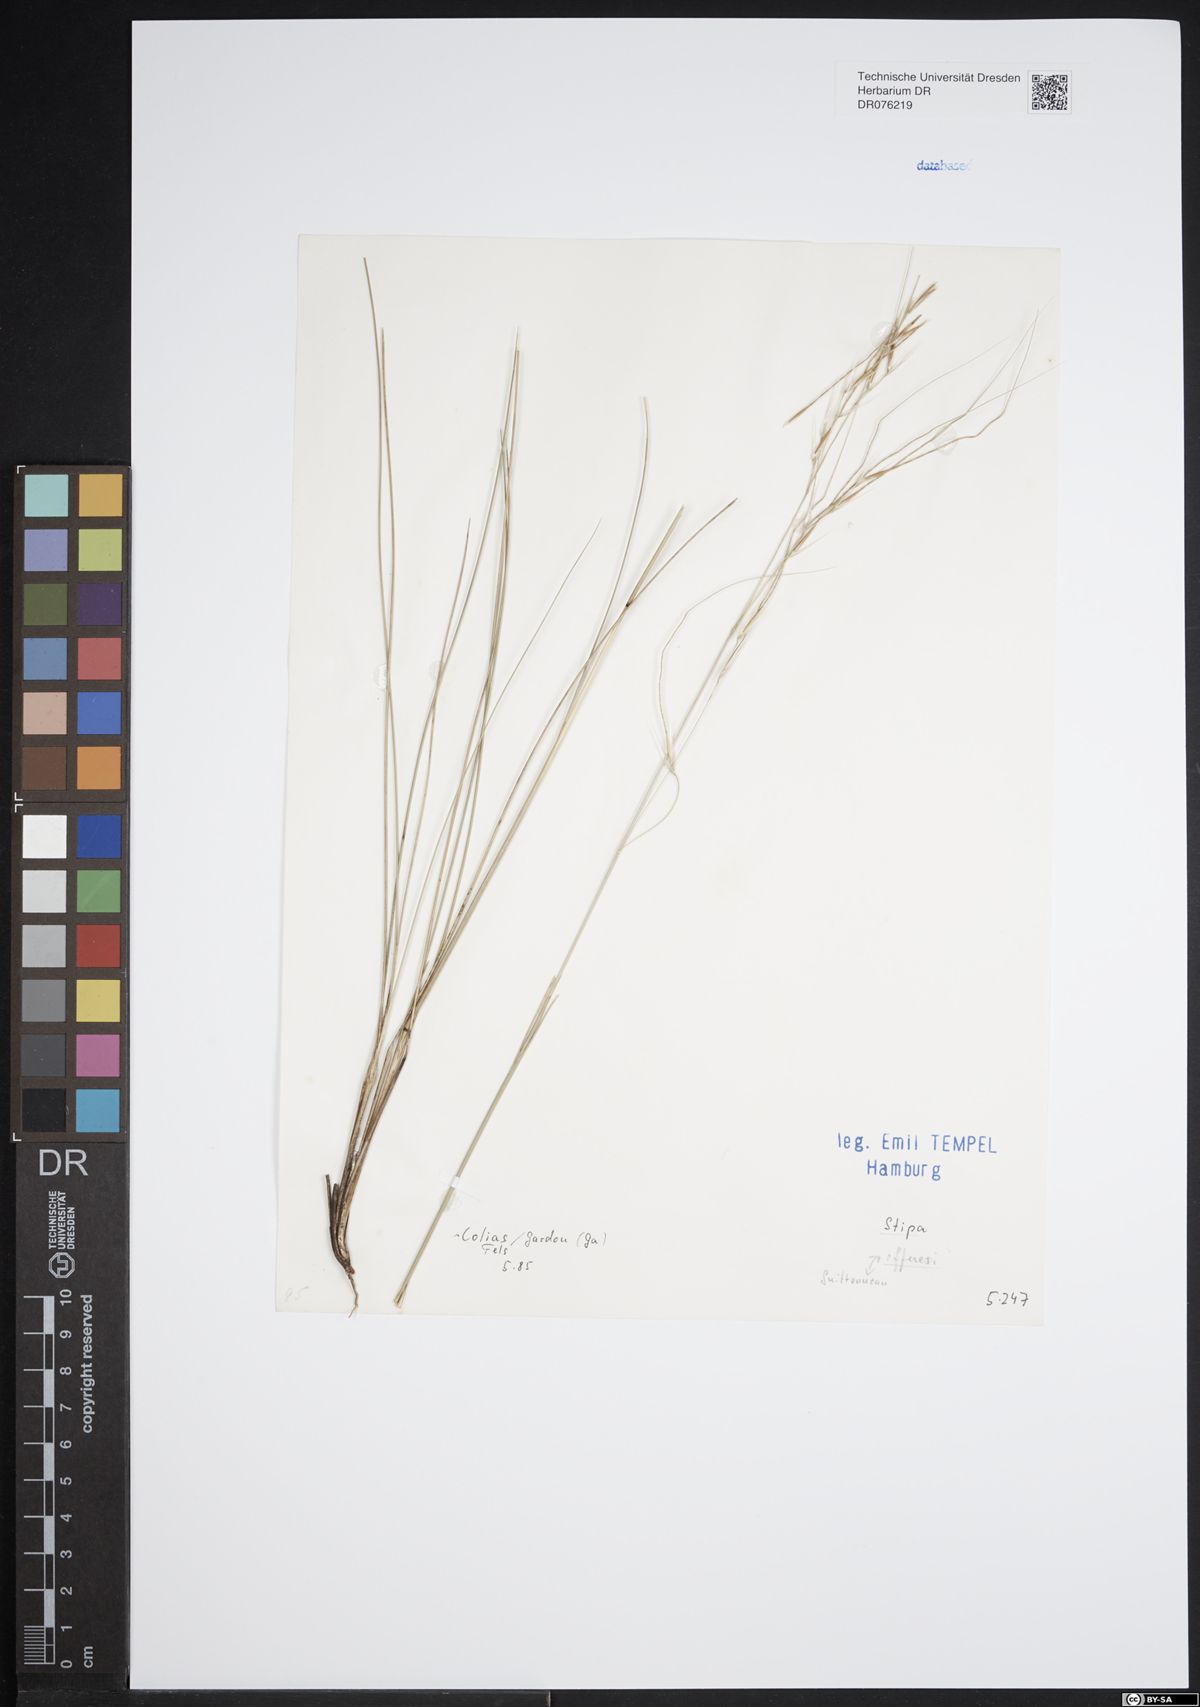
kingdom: Plantae
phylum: Tracheophyta
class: Liliopsida
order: Poales
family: Poaceae
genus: Stipa
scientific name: Stipa offneri
